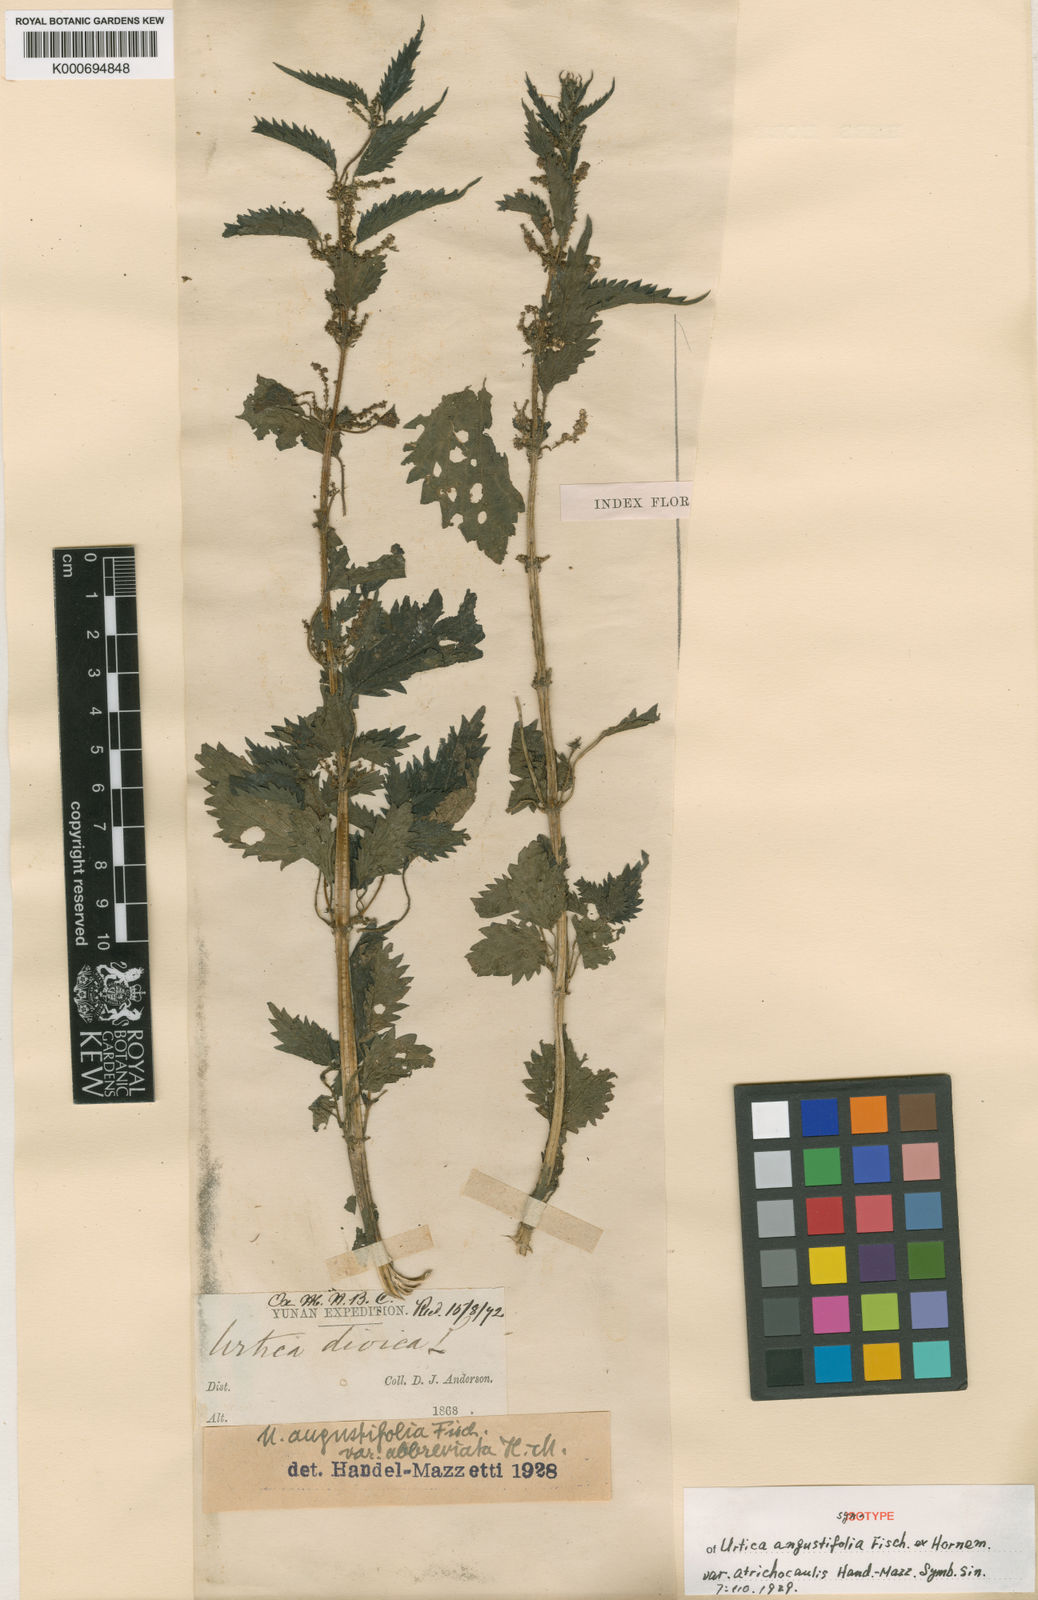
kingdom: Plantae
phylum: Tracheophyta
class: Magnoliopsida
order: Rosales
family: Urticaceae
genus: Urtica
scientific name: Urtica dioica
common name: Common nettle
